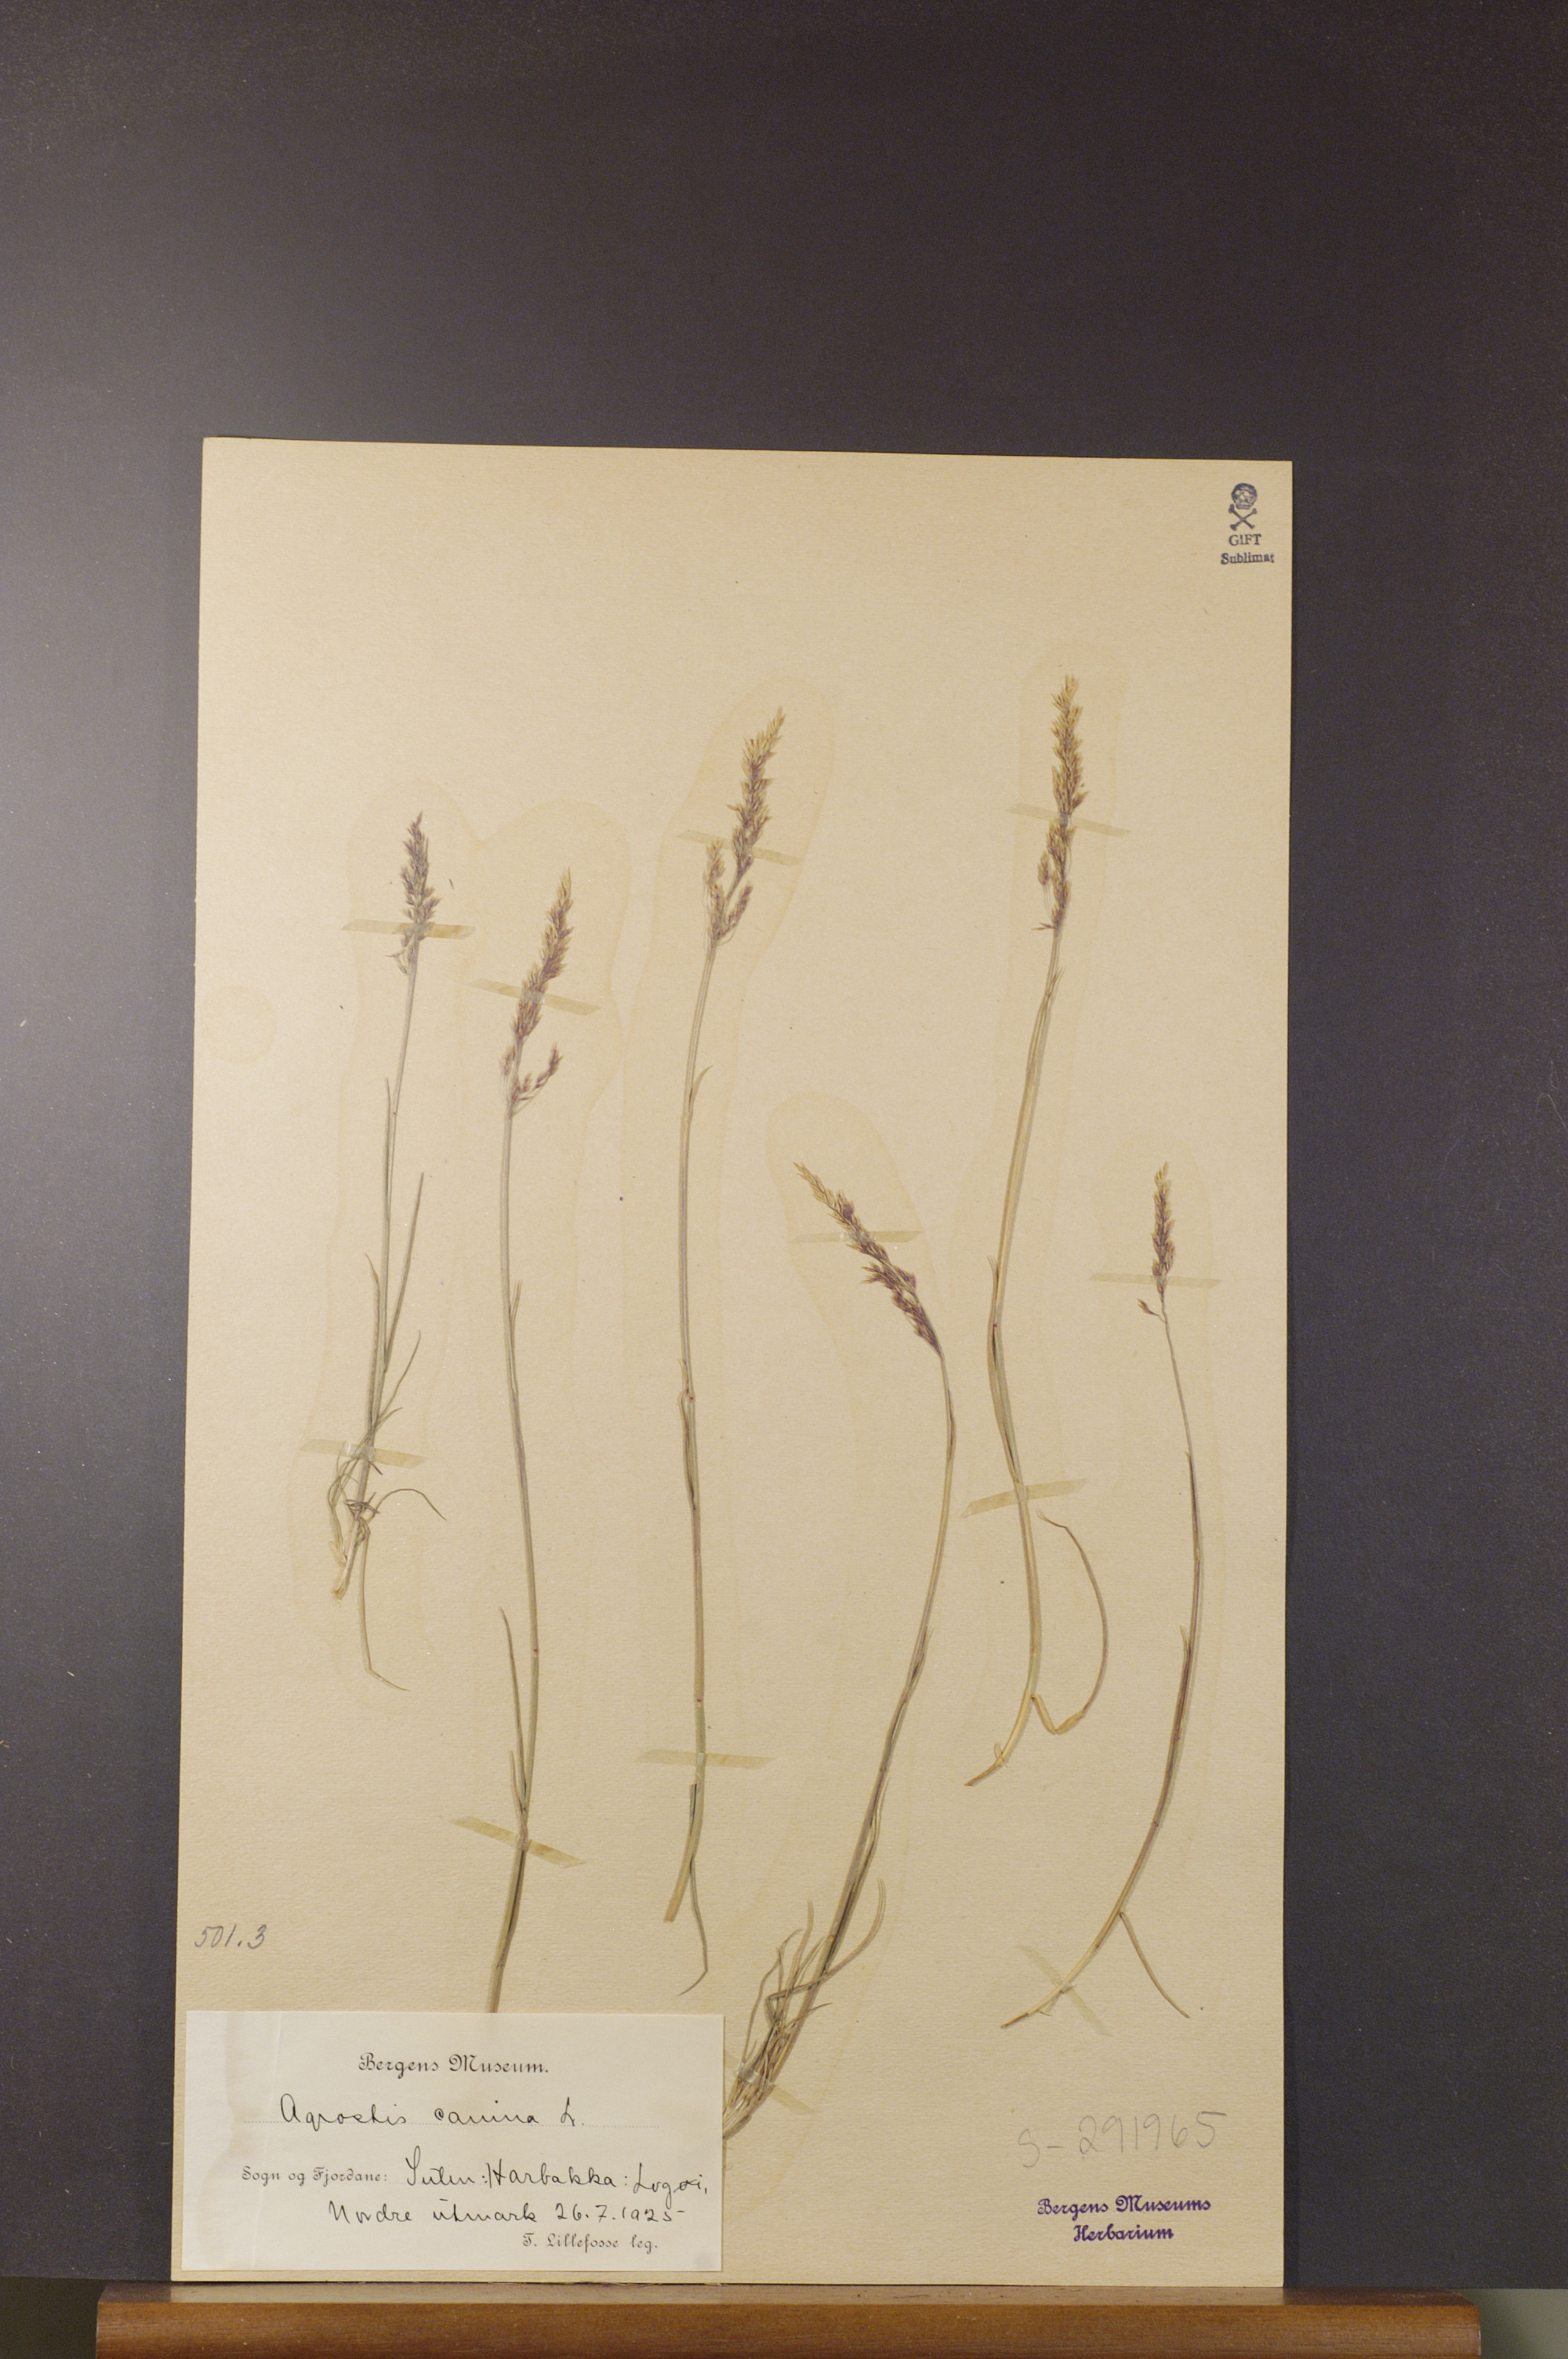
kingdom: Plantae
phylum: Tracheophyta
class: Liliopsida
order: Poales
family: Poaceae
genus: Agrostis
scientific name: Agrostis canina
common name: Velvet bent
